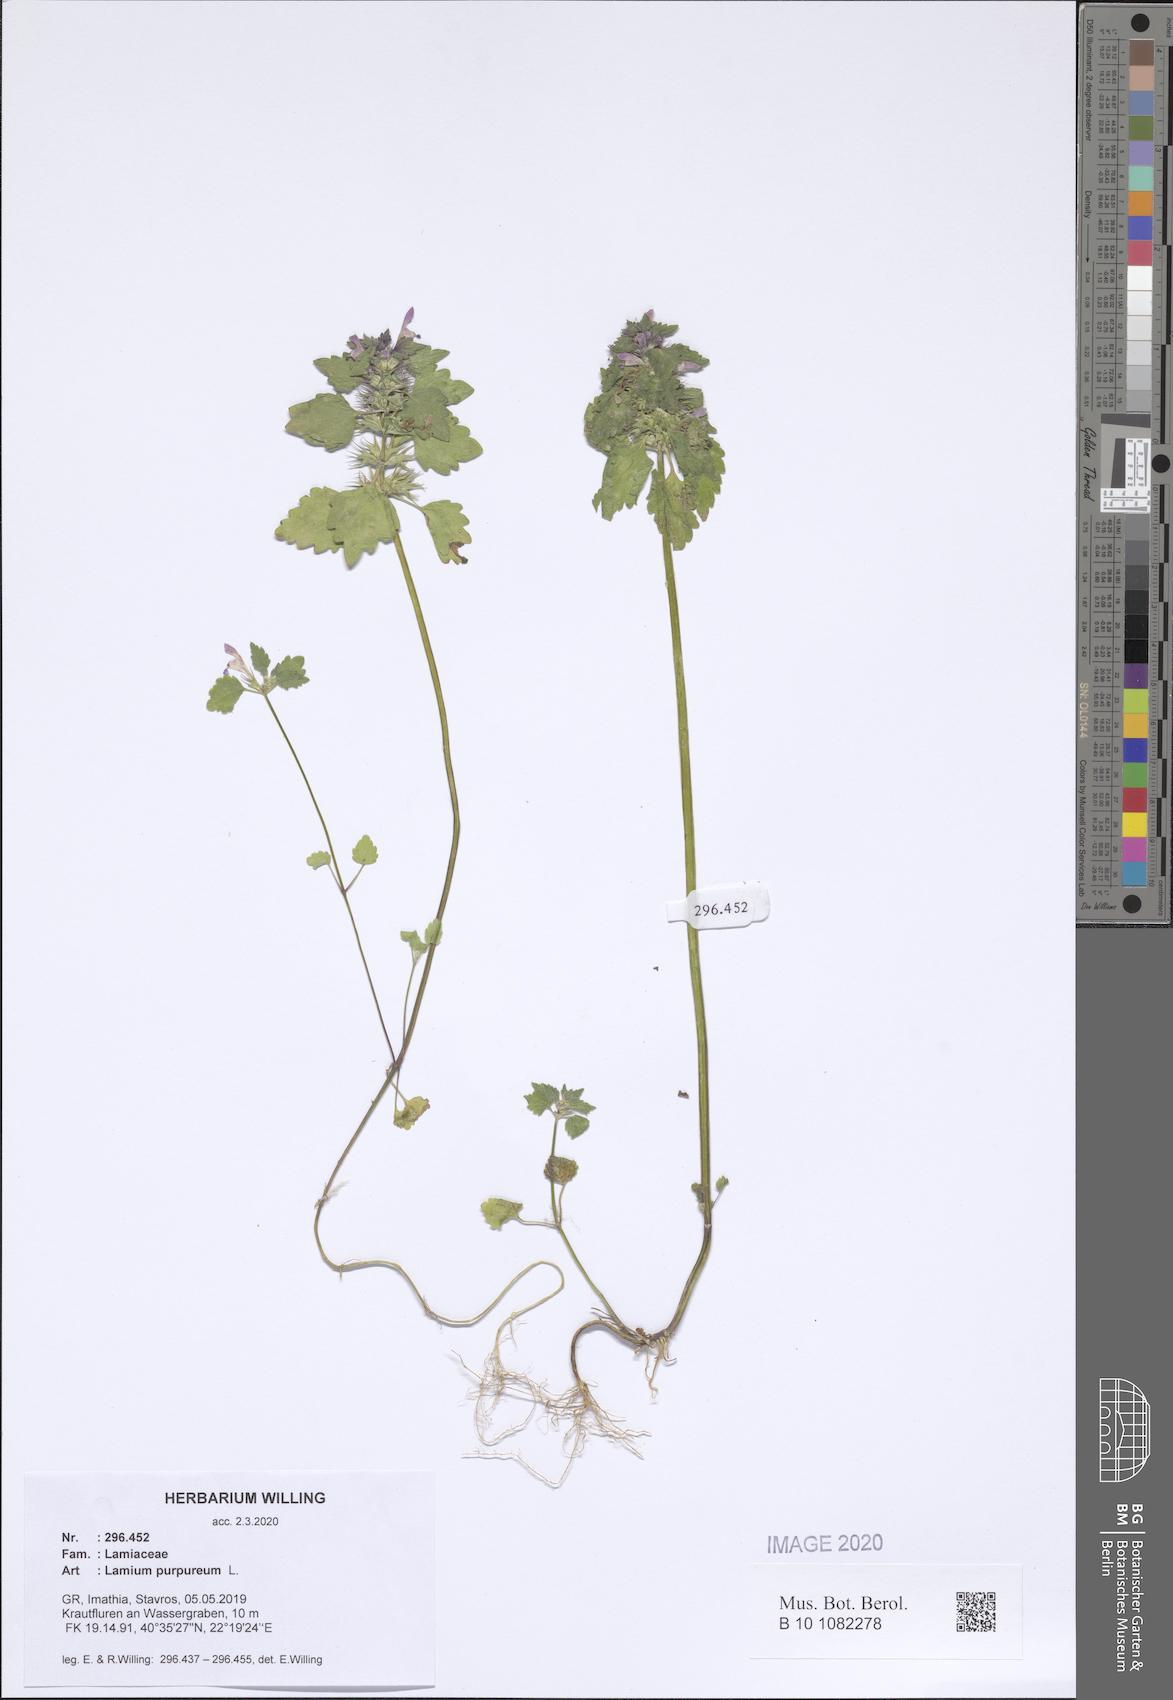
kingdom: Plantae
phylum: Tracheophyta
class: Magnoliopsida
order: Lamiales
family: Lamiaceae
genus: Lamium
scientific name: Lamium purpureum
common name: Red dead-nettle
